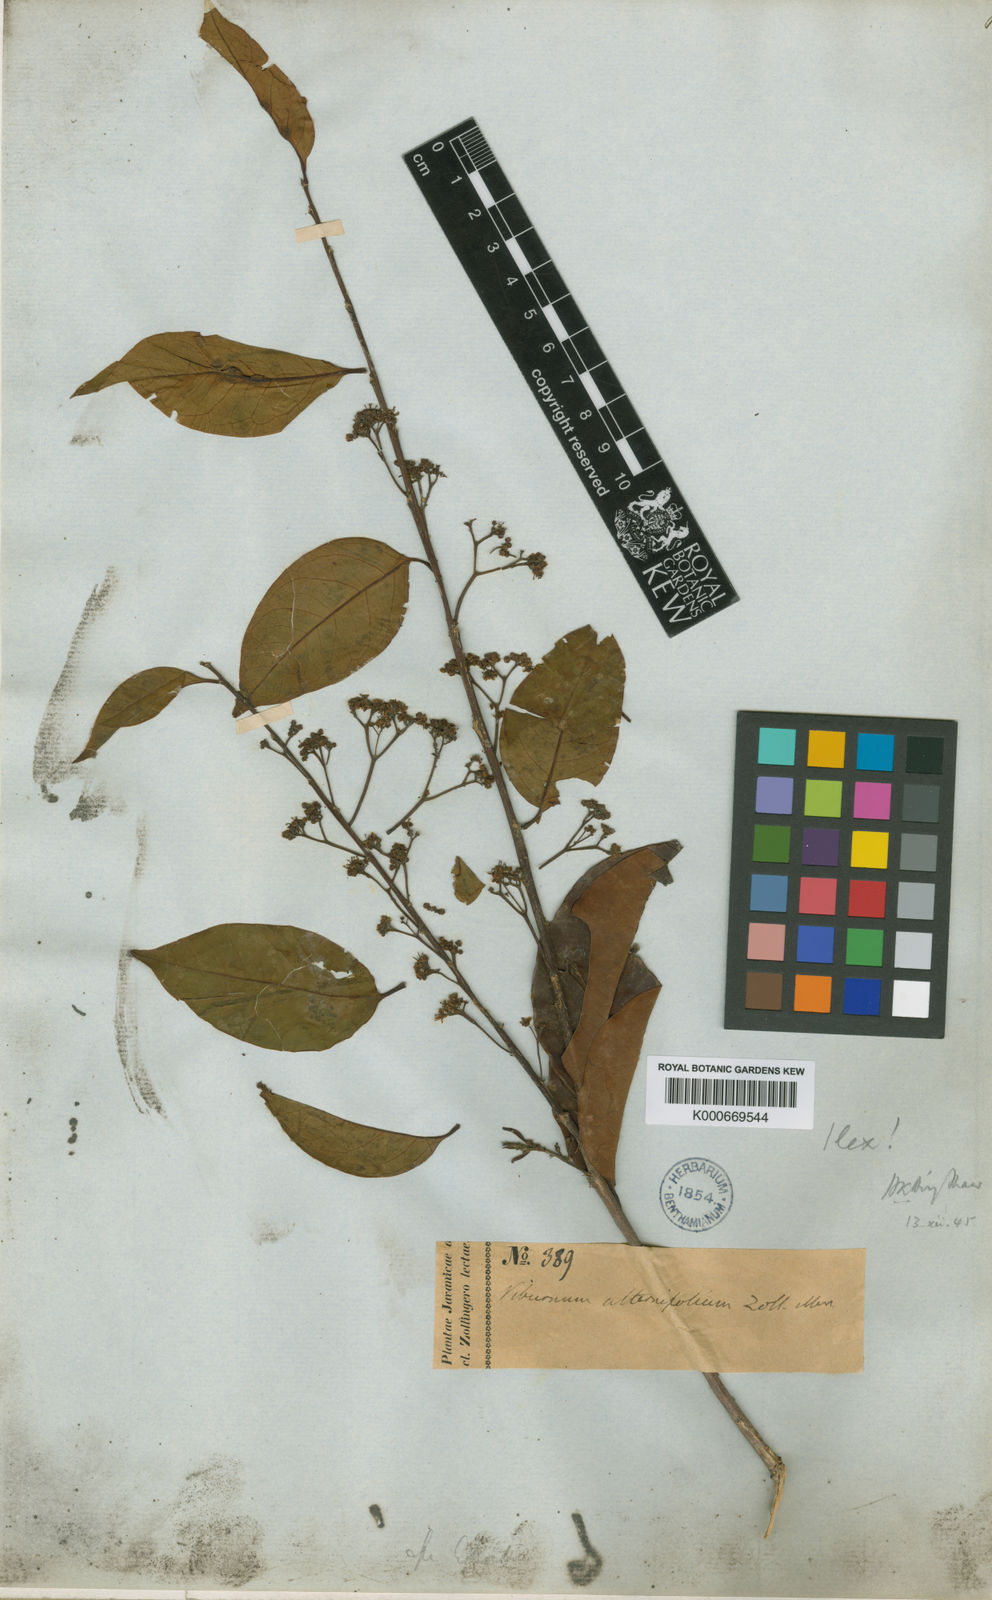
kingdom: Plantae
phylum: Tracheophyta
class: Magnoliopsida
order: Aquifoliales
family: Aquifoliaceae
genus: Ilex
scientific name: Ilex alternifolia
